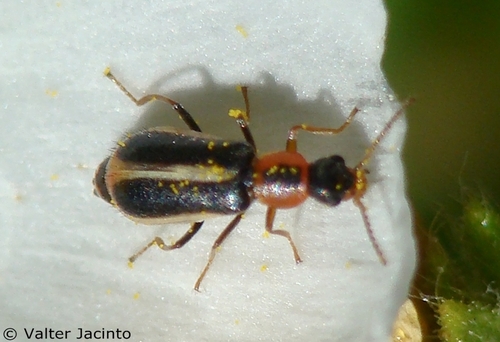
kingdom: Animalia
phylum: Arthropoda
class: Insecta
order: Coleoptera
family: Malachiidae
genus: Attalus
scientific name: Attalus limbatus
